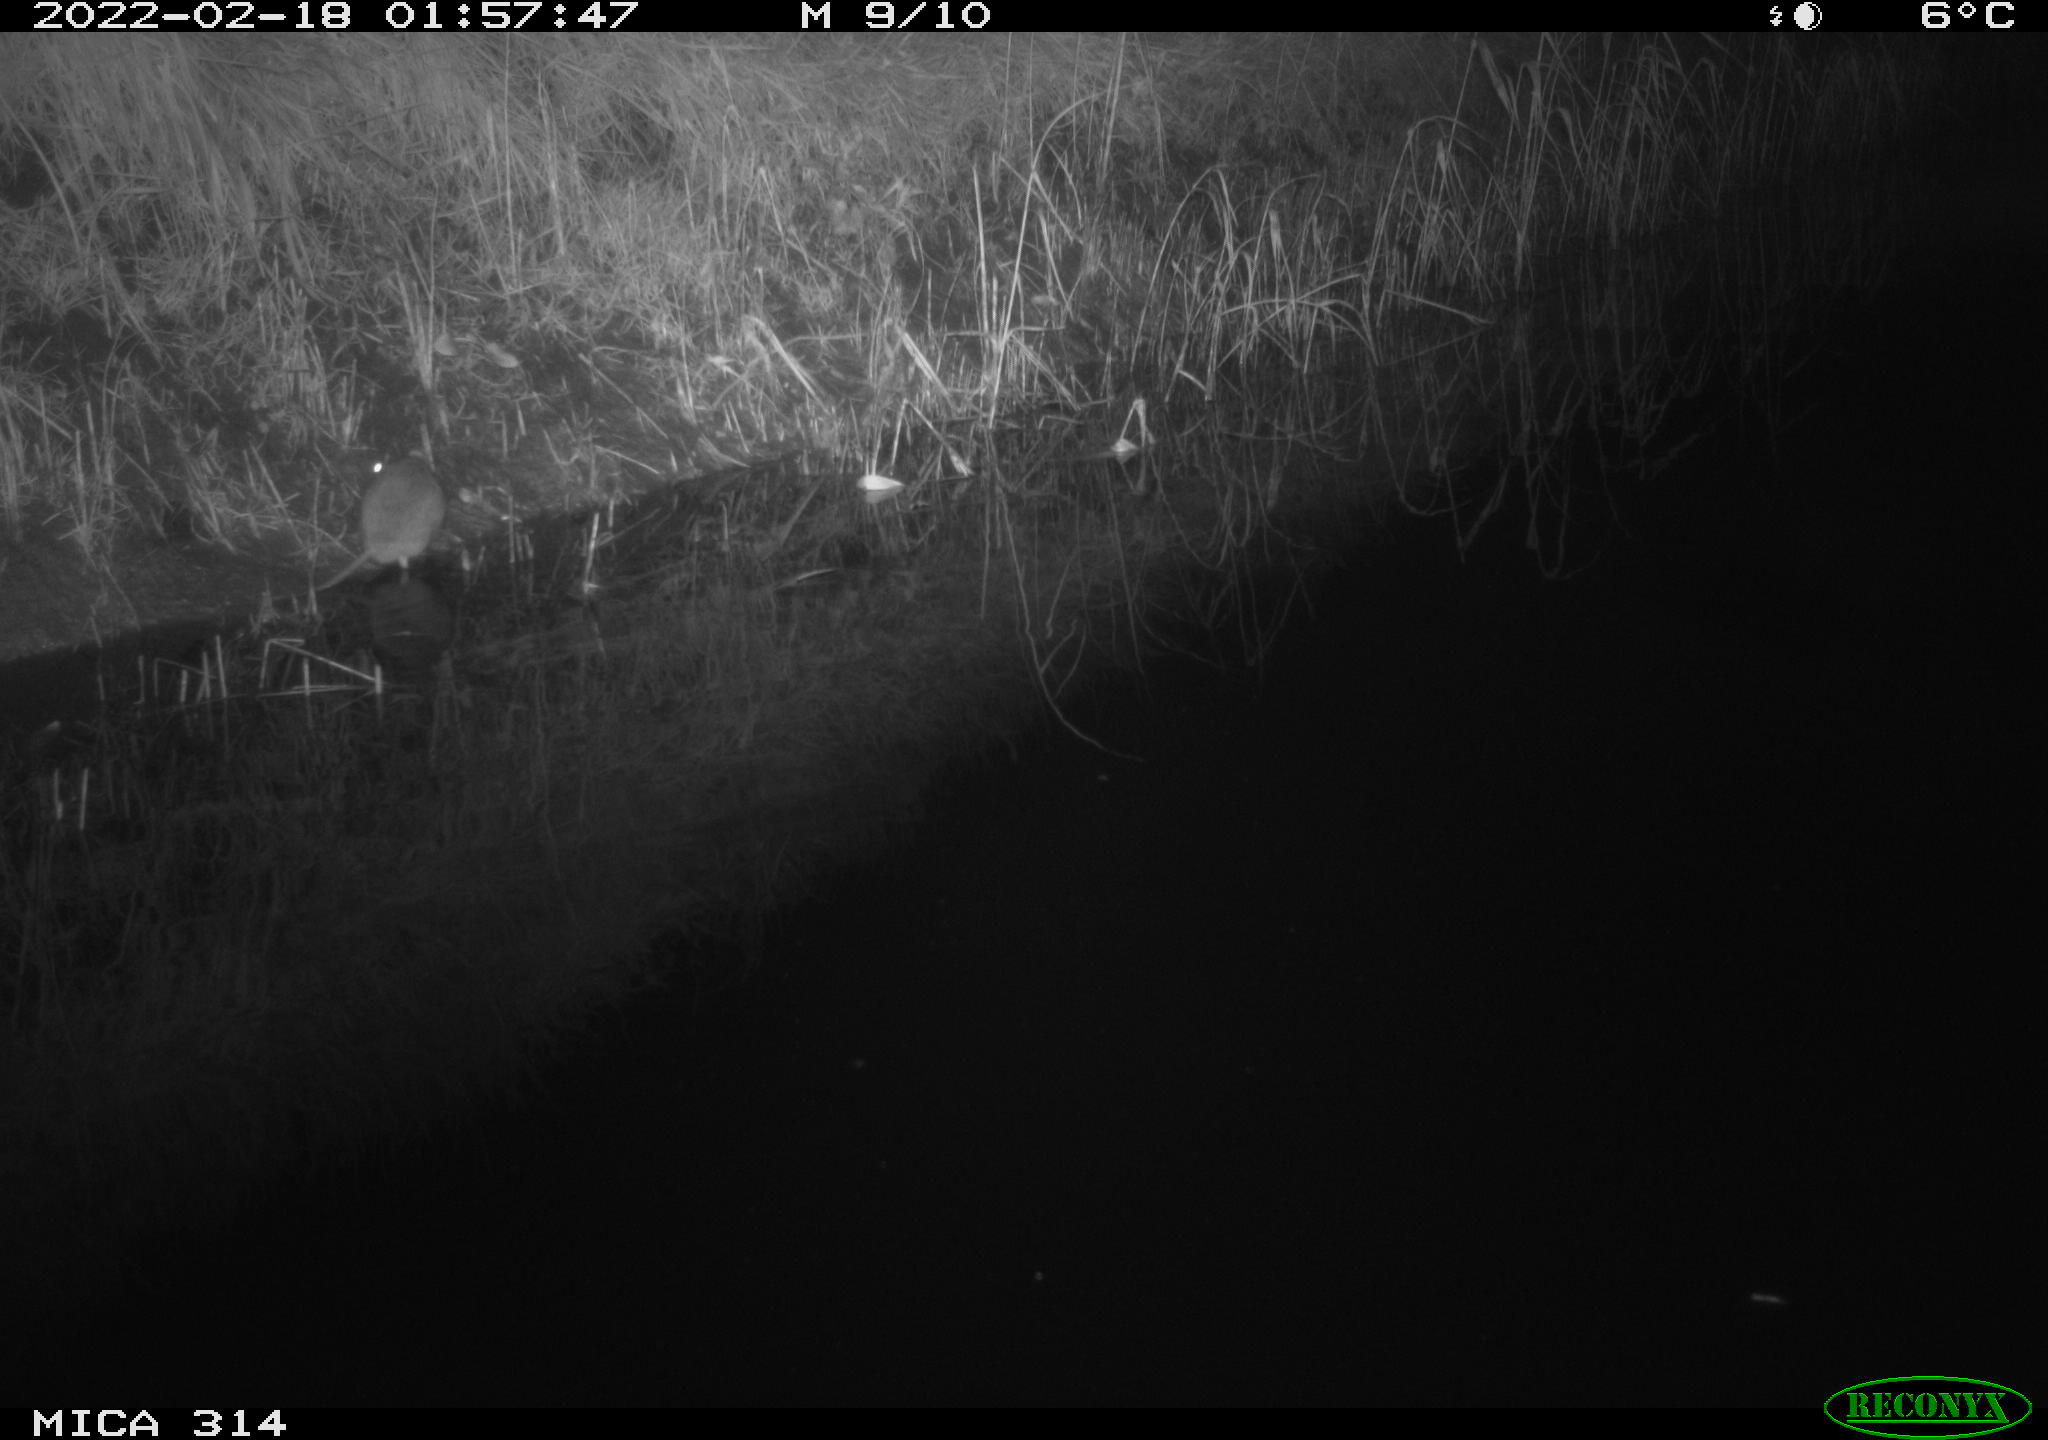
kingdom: Animalia
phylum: Chordata
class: Mammalia
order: Rodentia
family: Muridae
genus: Rattus
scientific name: Rattus norvegicus
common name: Brown rat
